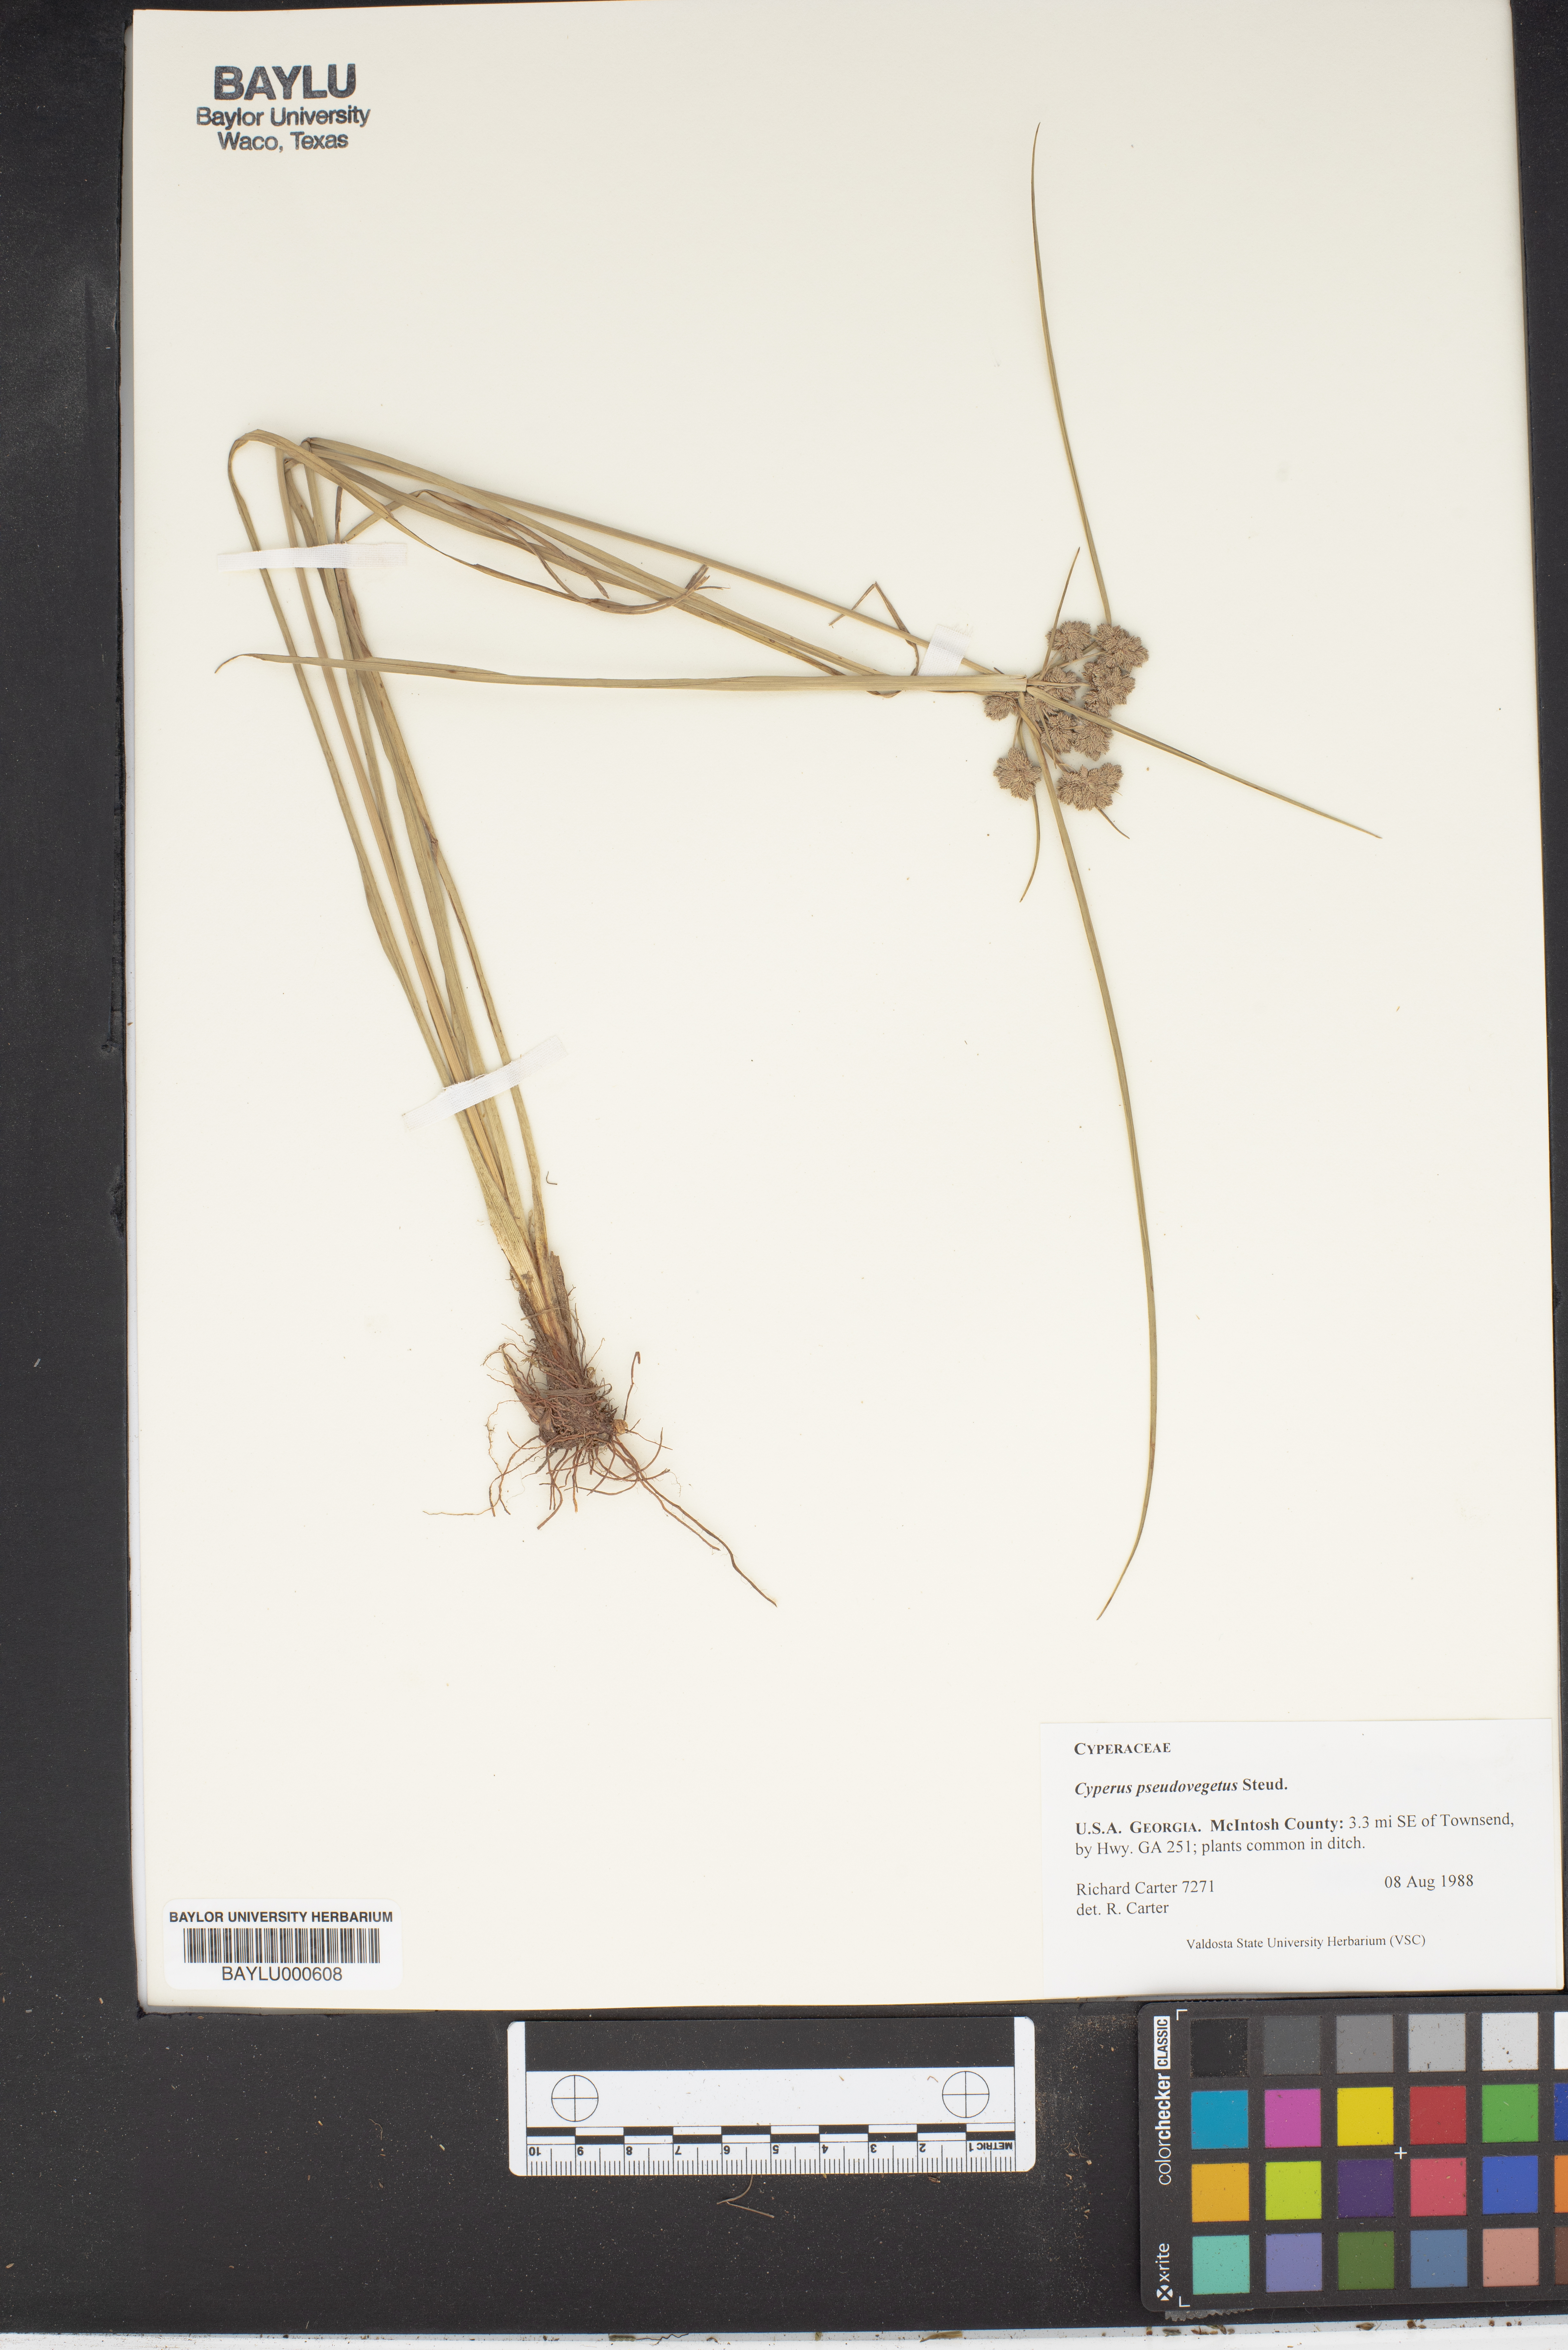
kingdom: Plantae
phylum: Tracheophyta
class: Liliopsida
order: Poales
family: Cyperaceae
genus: Cyperus
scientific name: Cyperus pseudovegetus
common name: Marsh flat sedge
